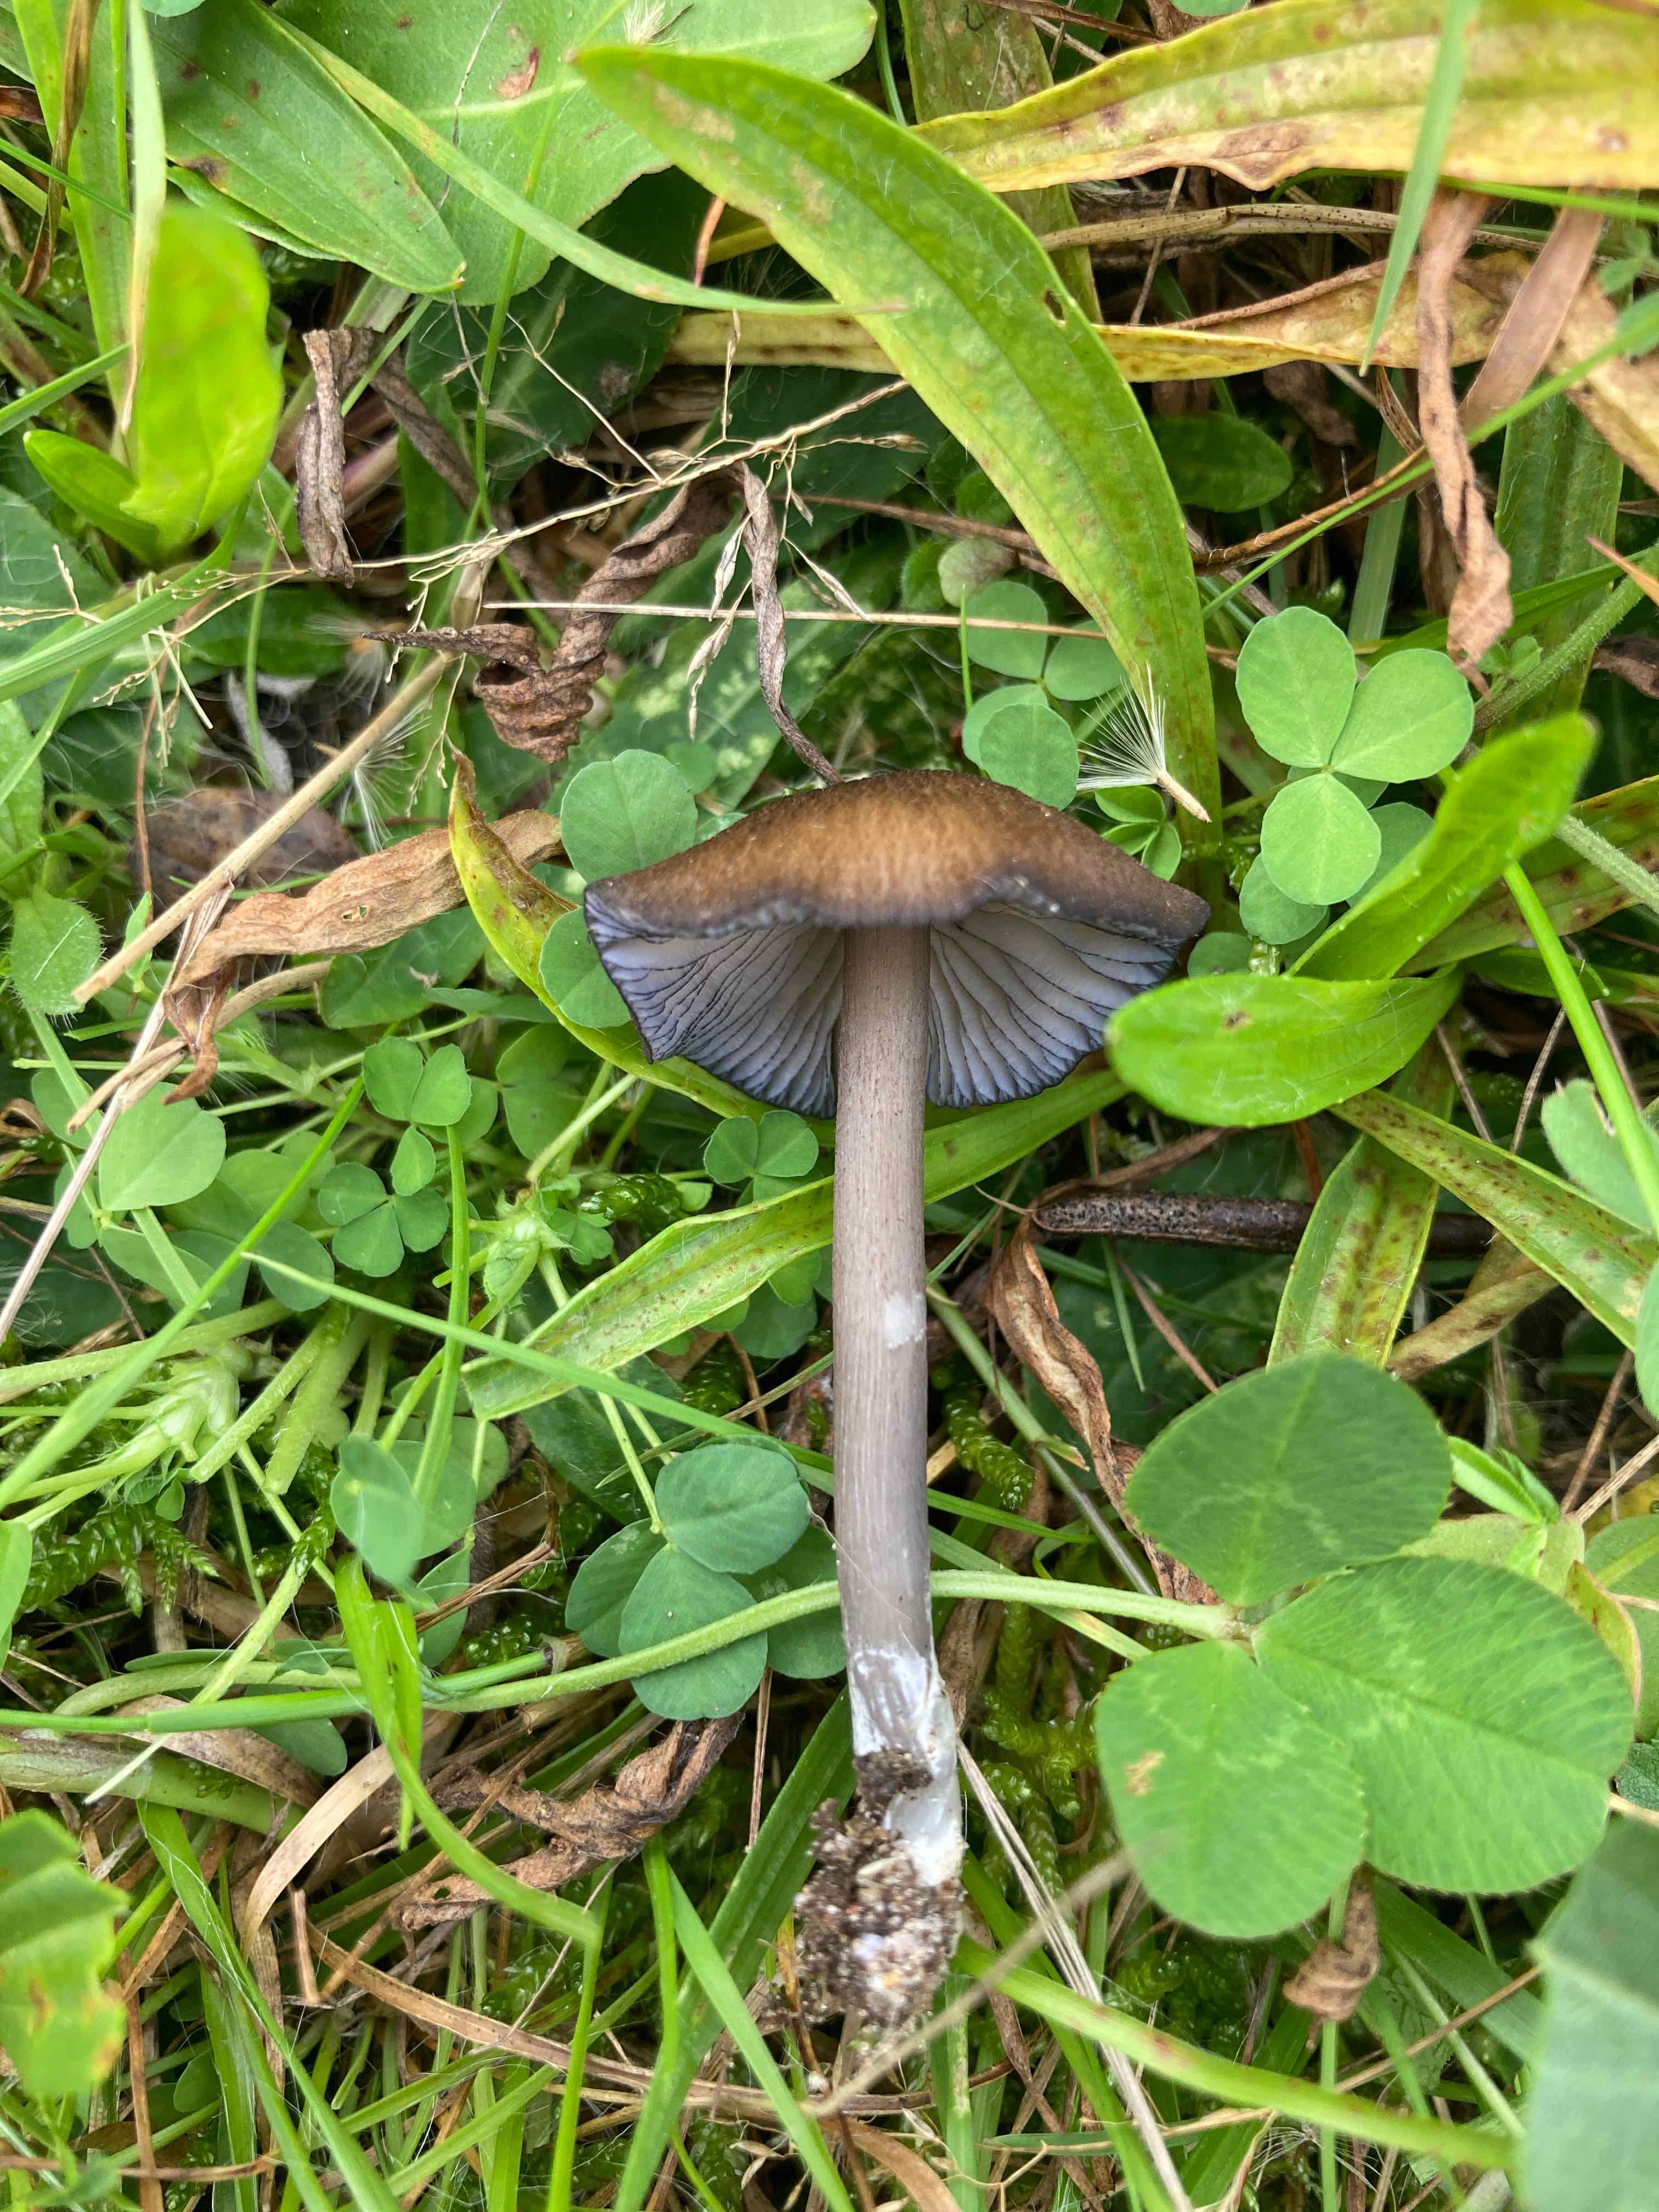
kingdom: Fungi
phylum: Basidiomycota
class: Agaricomycetes
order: Agaricales
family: Entolomataceae
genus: Entoloma
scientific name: Entoloma caesiocinctum
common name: Blue-girdled pinkgill
